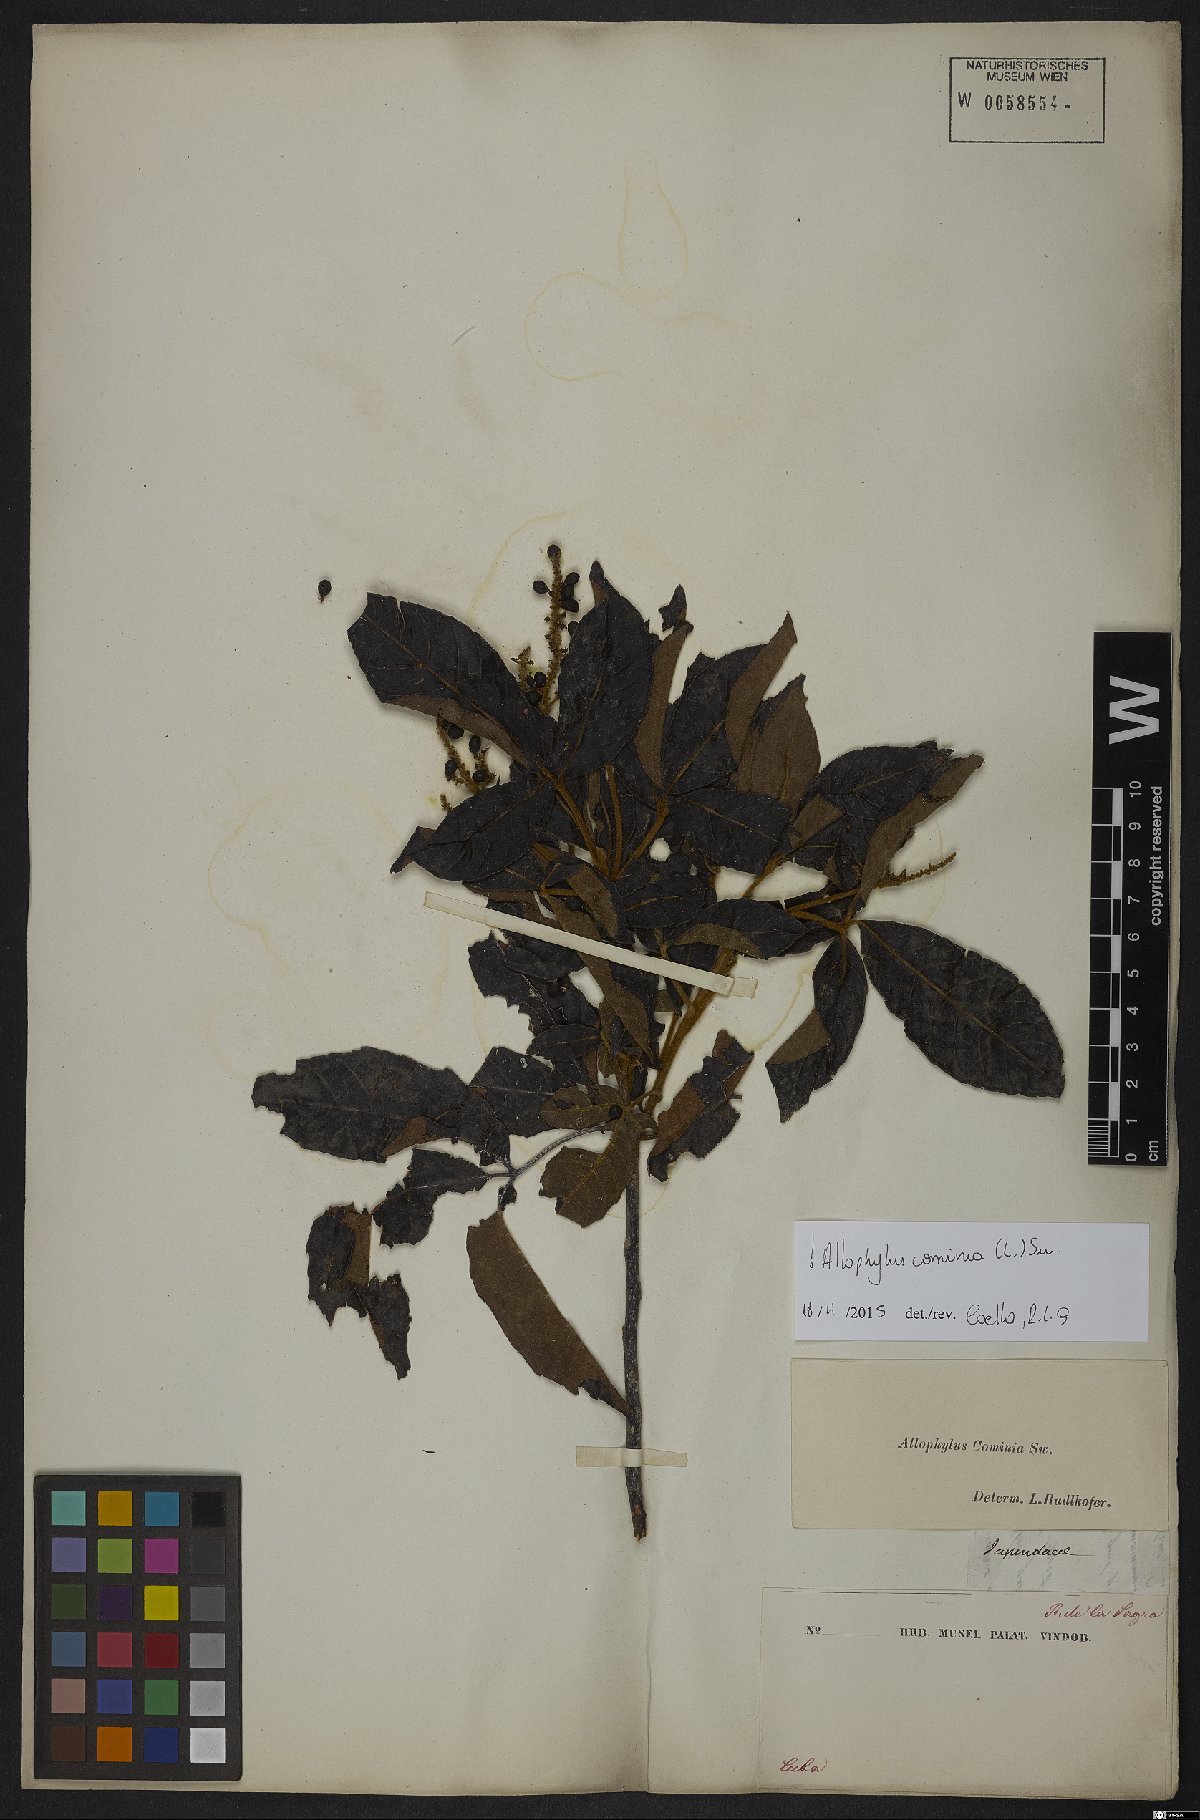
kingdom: Plantae
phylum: Tracheophyta
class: Magnoliopsida
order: Sapindales
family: Sapindaceae
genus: Allophylus
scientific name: Allophylus cominia
